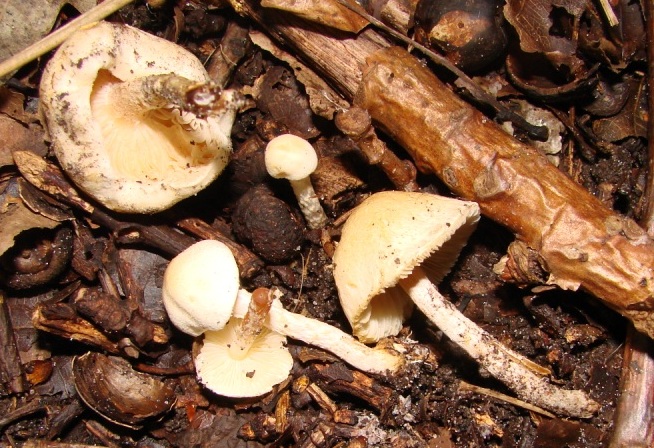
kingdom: Fungi
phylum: Basidiomycota
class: Agaricomycetes
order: Agaricales
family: Agaricaceae
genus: Cystolepiota
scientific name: Cystolepiota hetieri
